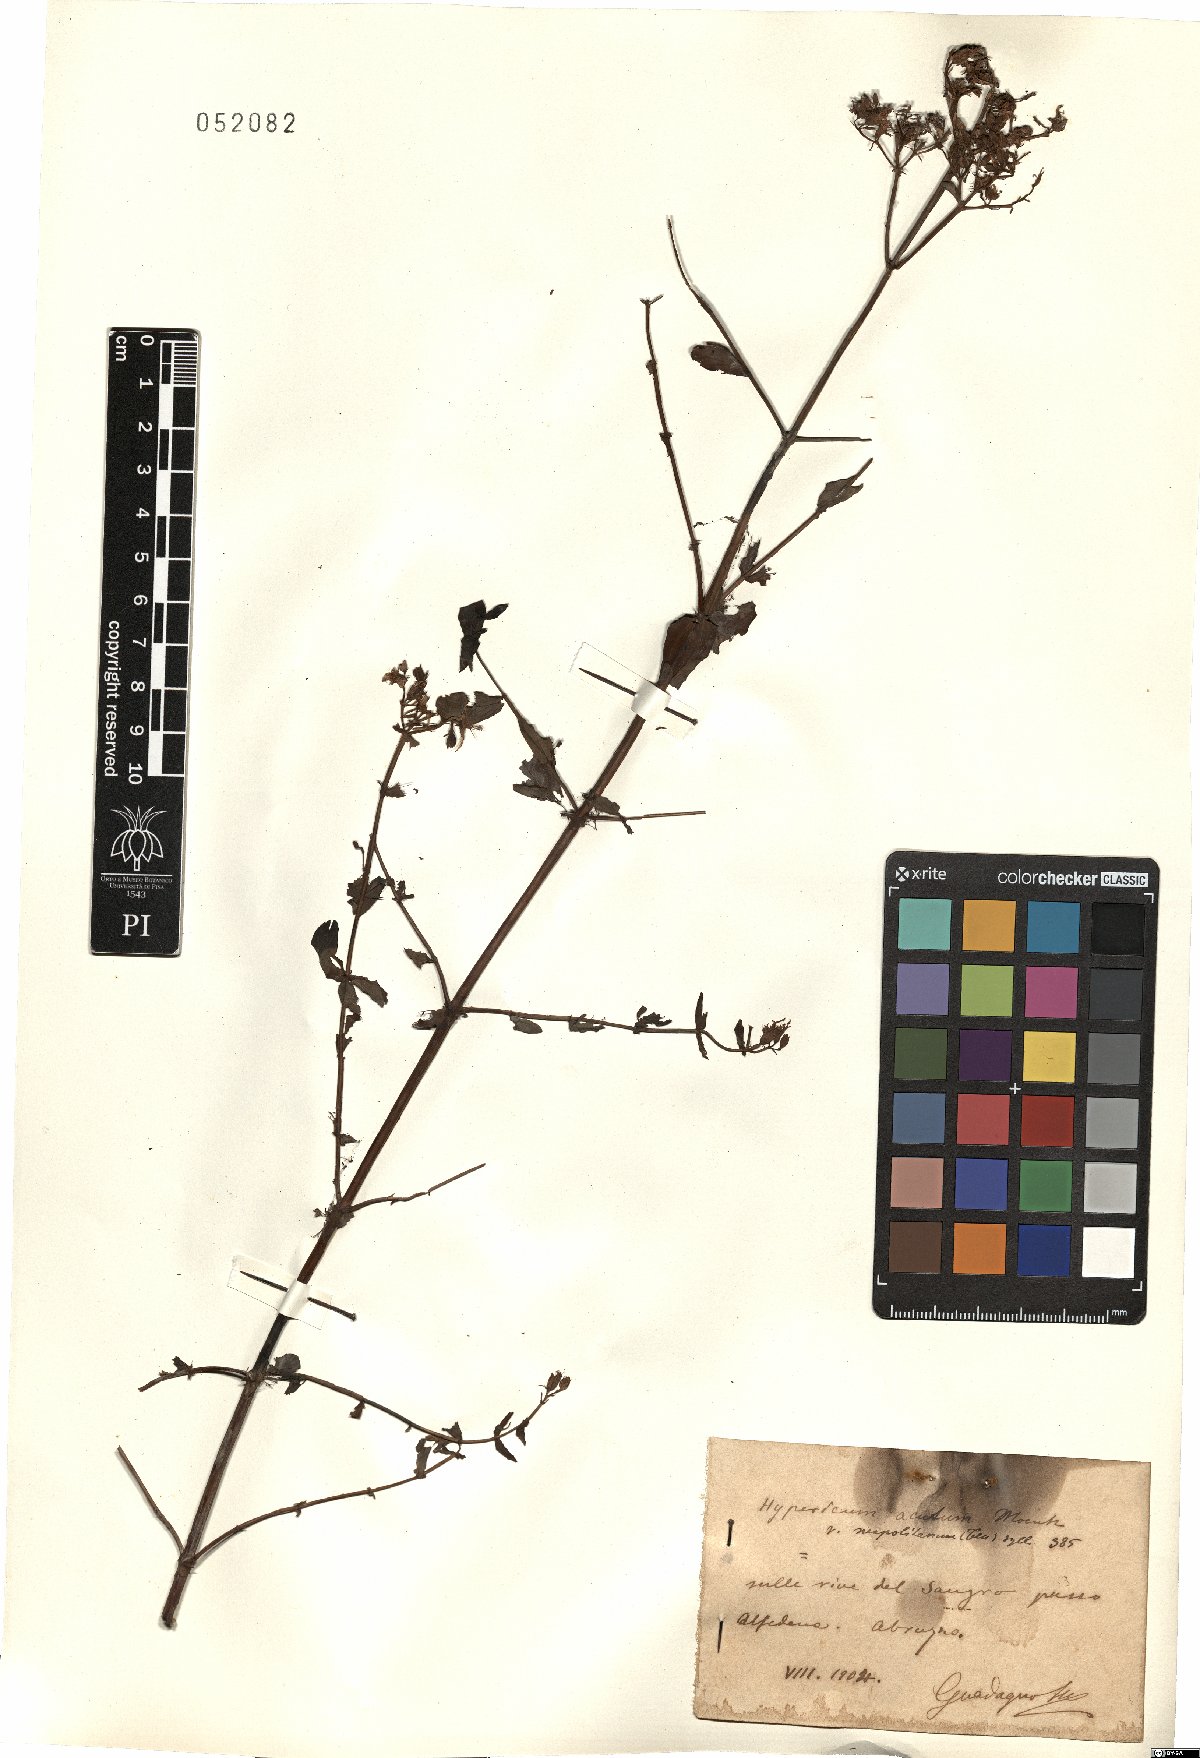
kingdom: Plantae
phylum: Tracheophyta
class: Magnoliopsida
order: Malpighiales
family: Hypericaceae
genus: Hypericum
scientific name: Hypericum tetrapterum
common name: Square-stalked st. john's-wort
